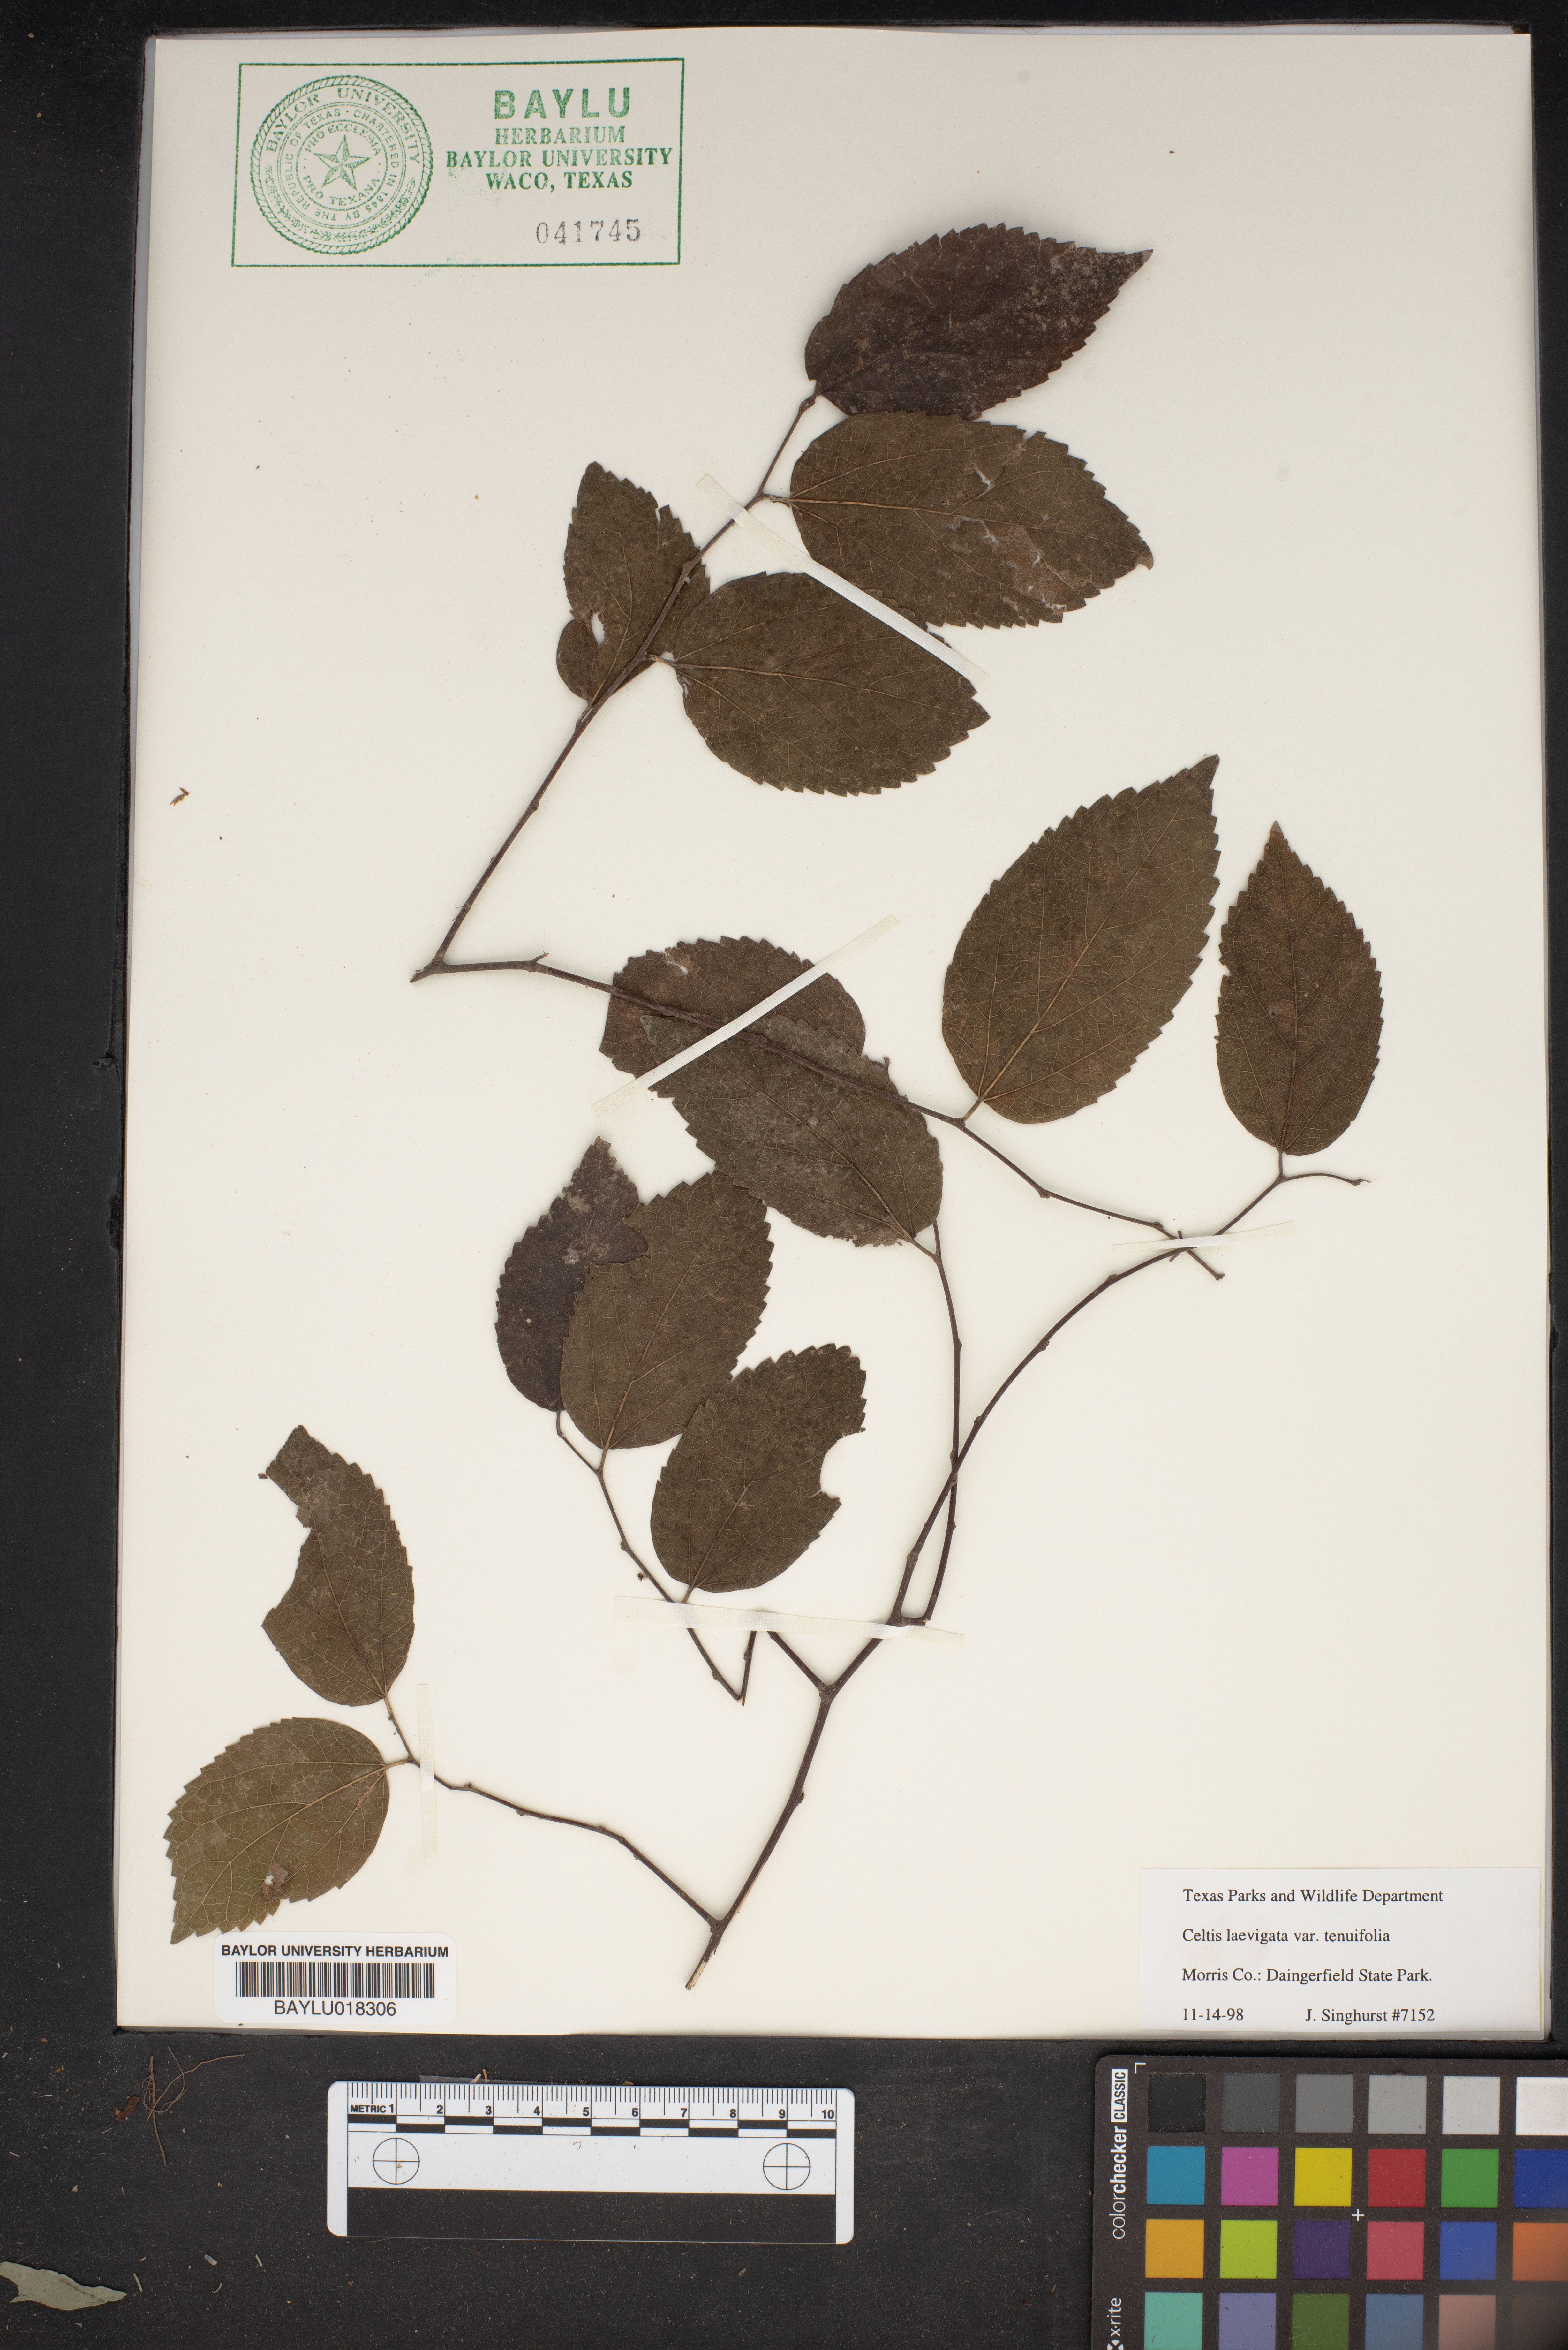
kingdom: Plantae
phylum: Tracheophyta
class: Magnoliopsida
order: Rosales
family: Cannabaceae
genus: Celtis
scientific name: Celtis laevigata
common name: Sugarberry
